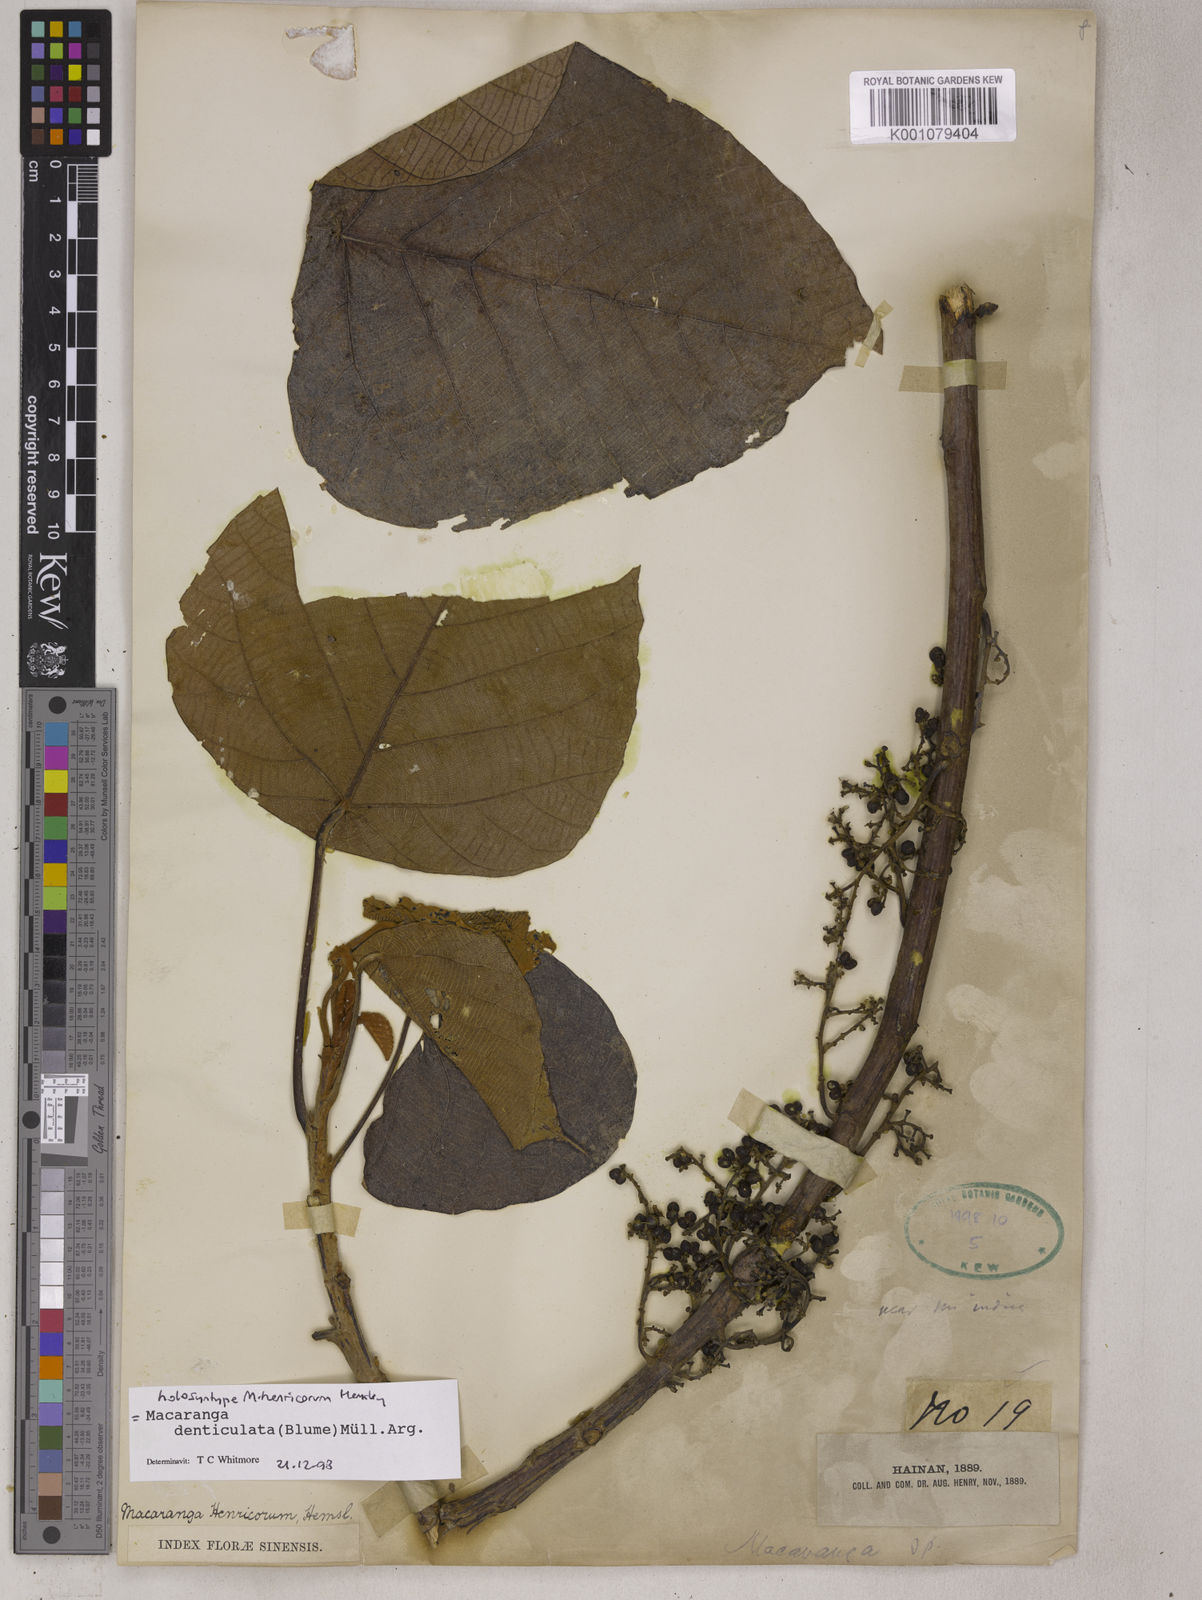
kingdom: Plantae
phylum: Tracheophyta
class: Magnoliopsida
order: Malpighiales
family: Euphorbiaceae
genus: Macaranga
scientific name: Macaranga
